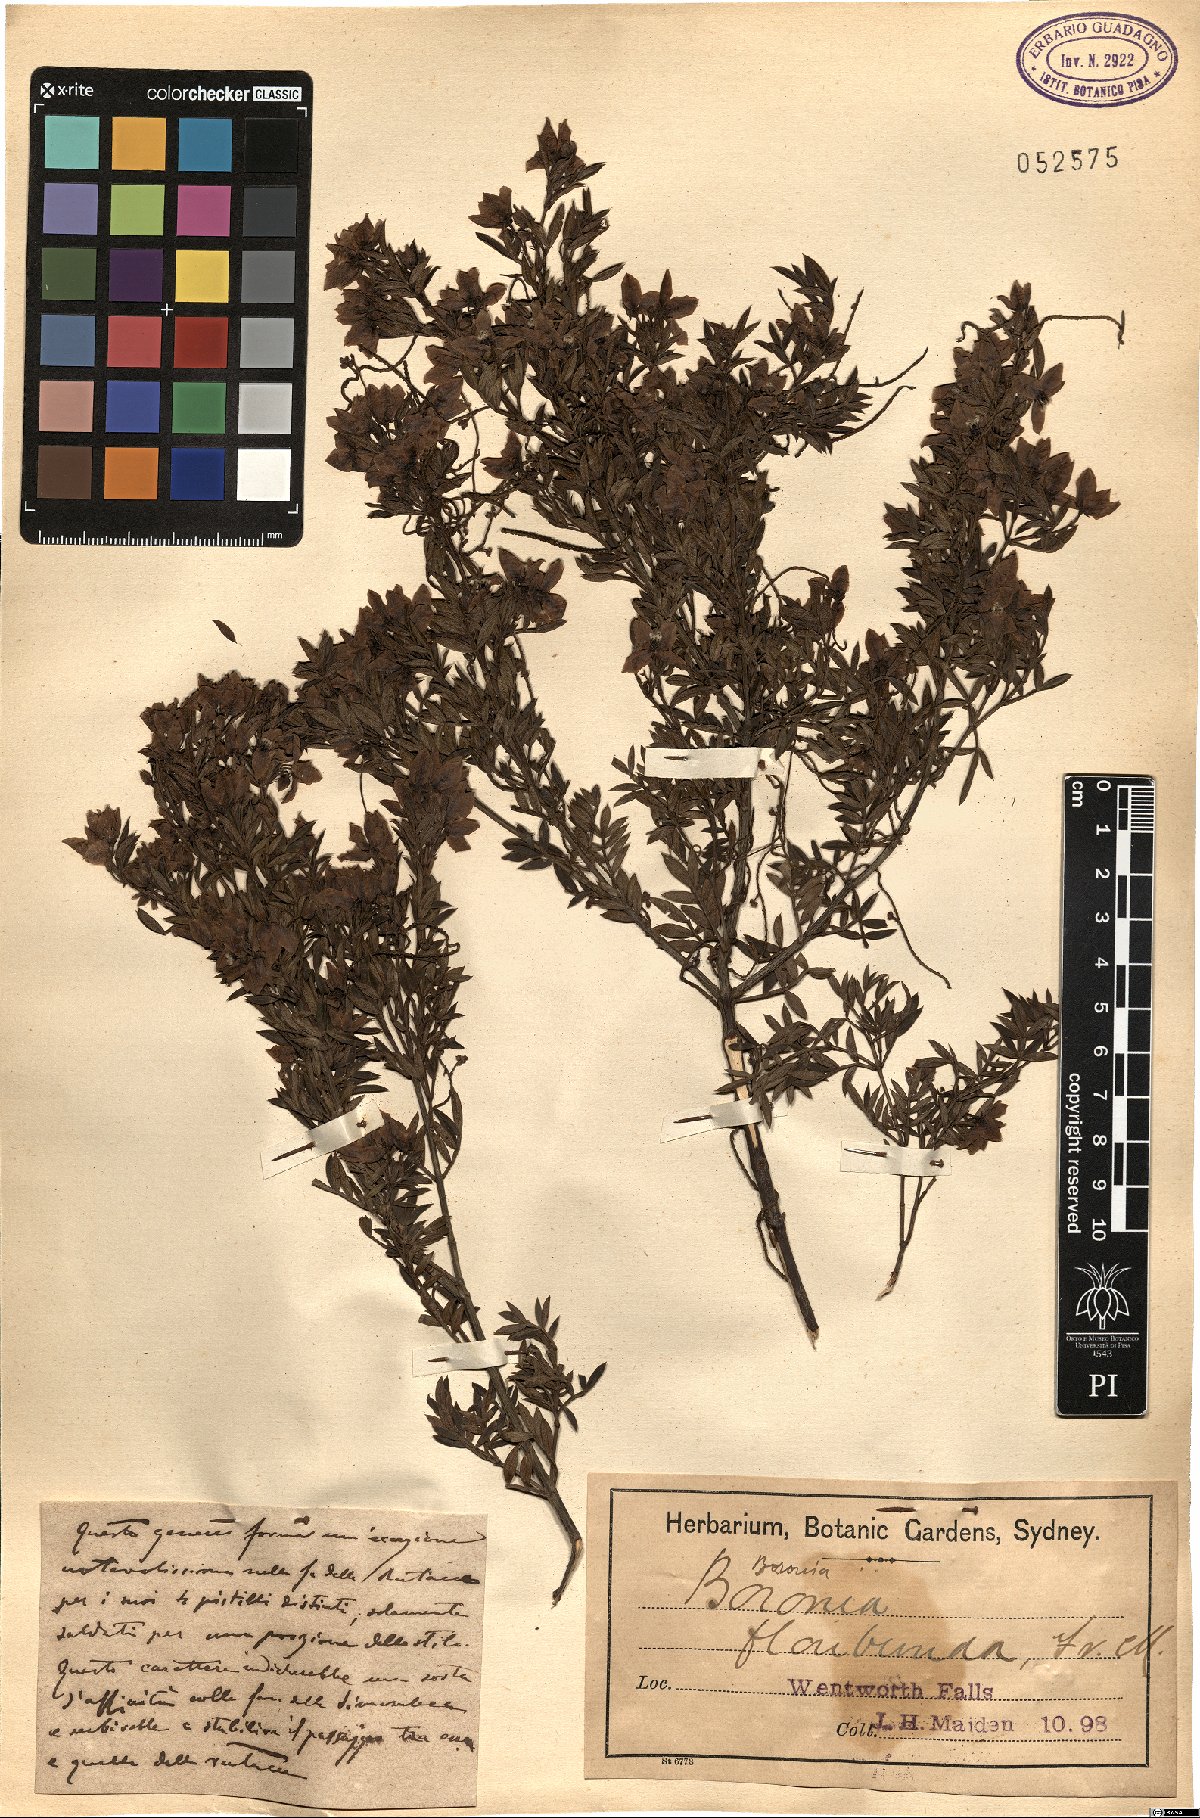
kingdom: Plantae
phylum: Tracheophyta
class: Magnoliopsida
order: Sapindales
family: Rutaceae
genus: Boronia
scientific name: Boronia floribunda
